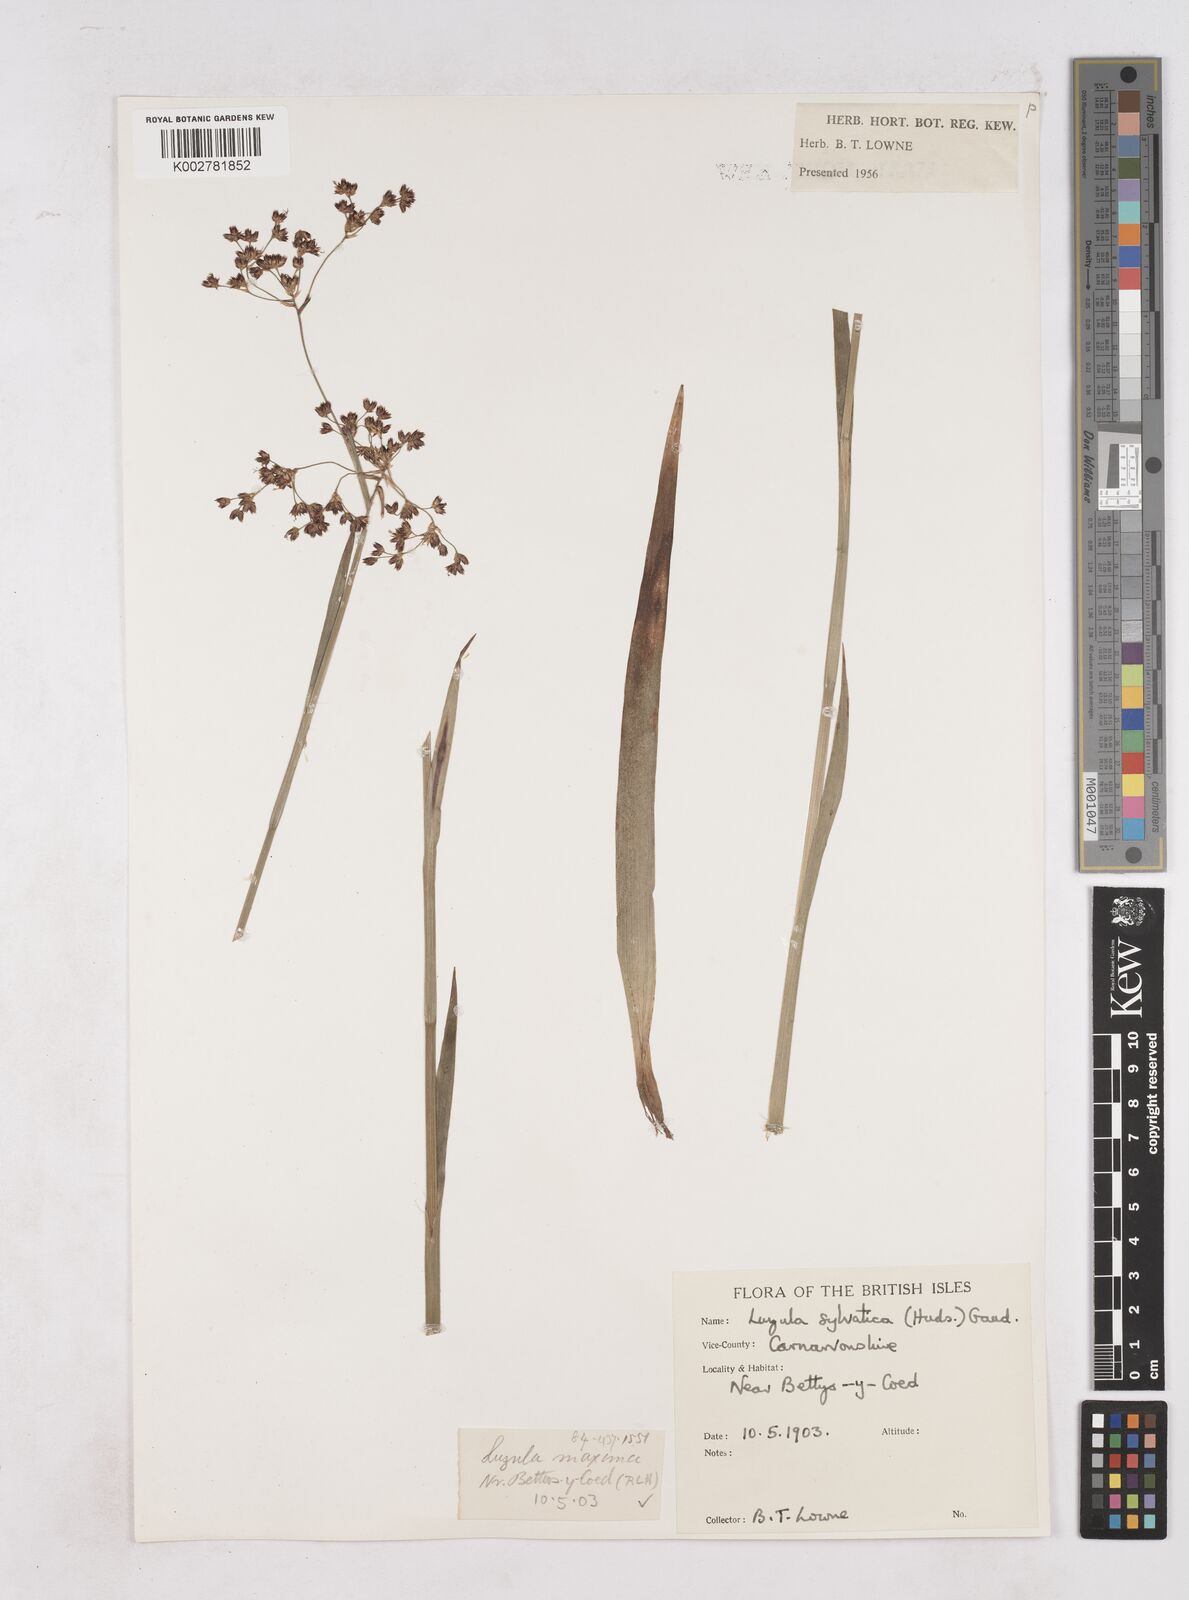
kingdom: Plantae
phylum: Tracheophyta
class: Liliopsida
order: Poales
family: Juncaceae
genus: Luzula
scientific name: Luzula sylvatica
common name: Great wood-rush
